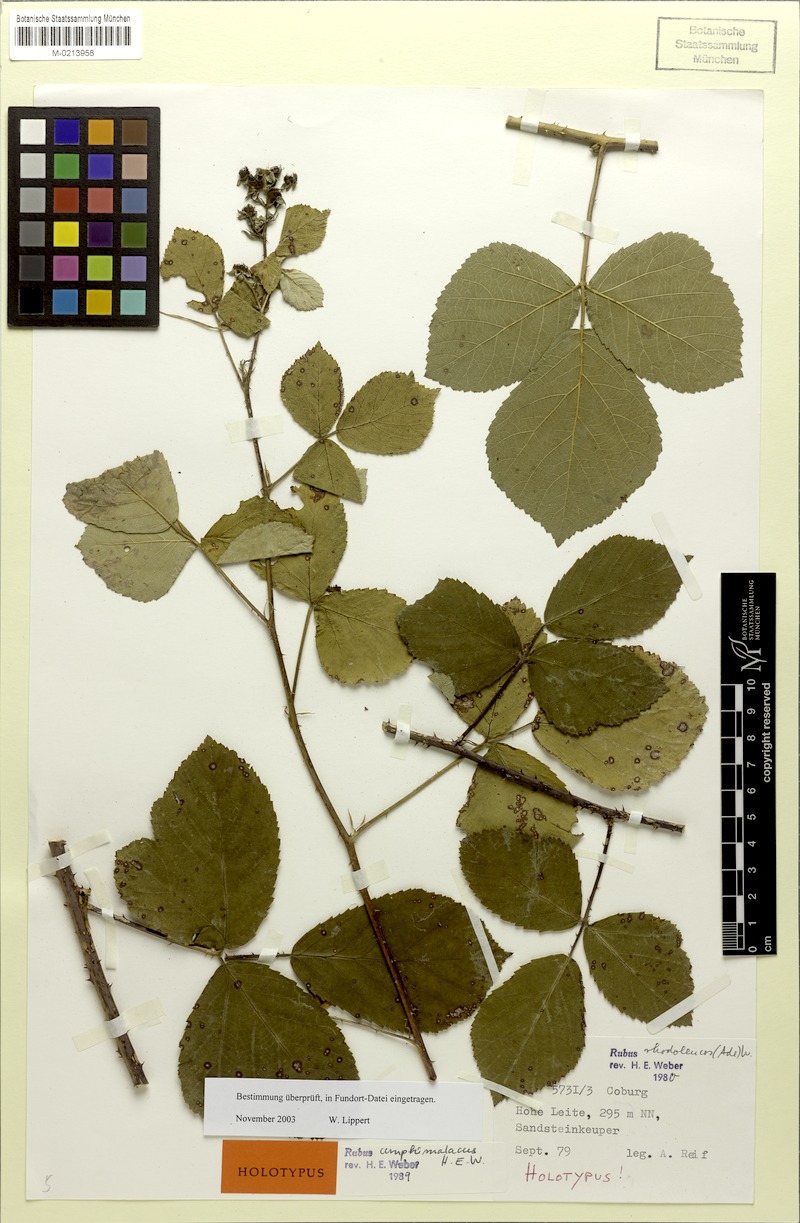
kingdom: Plantae
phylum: Tracheophyta
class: Magnoliopsida
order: Rosales
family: Rosaceae
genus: Rubus
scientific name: Rubus amphimalacus
